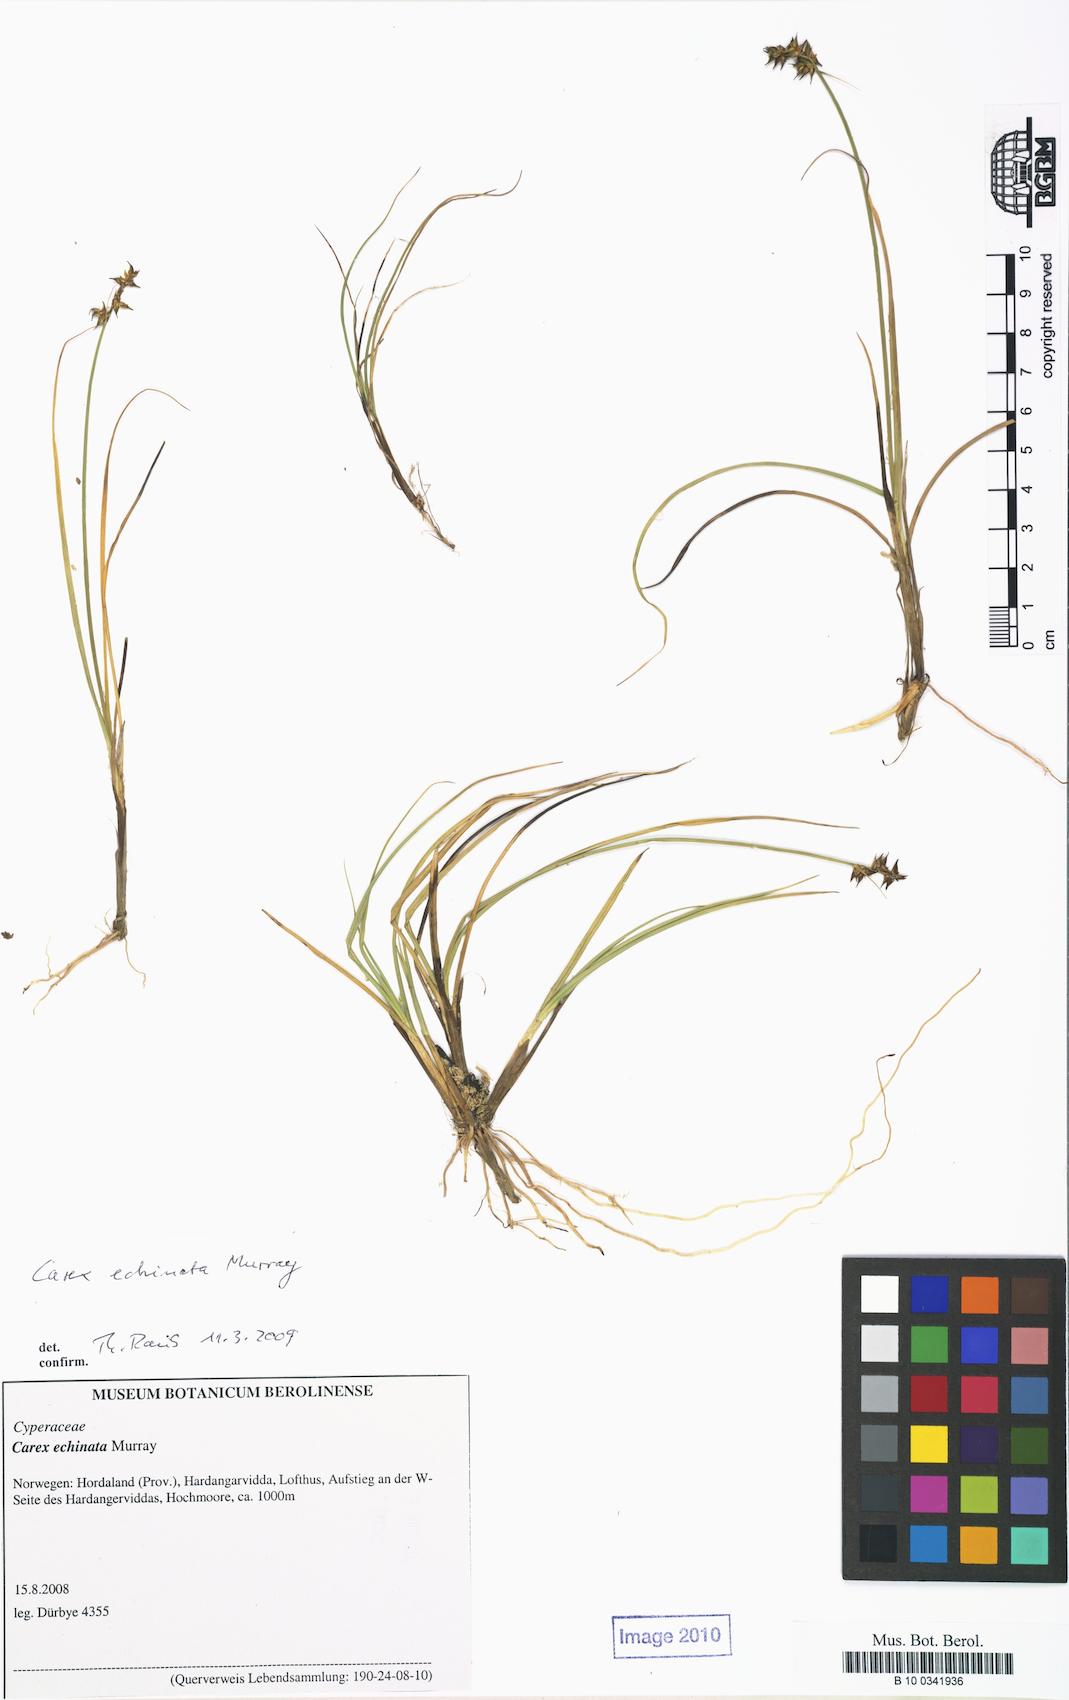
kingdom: Plantae
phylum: Tracheophyta
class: Liliopsida
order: Poales
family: Cyperaceae
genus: Carex
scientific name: Carex echinata
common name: Star sedge
